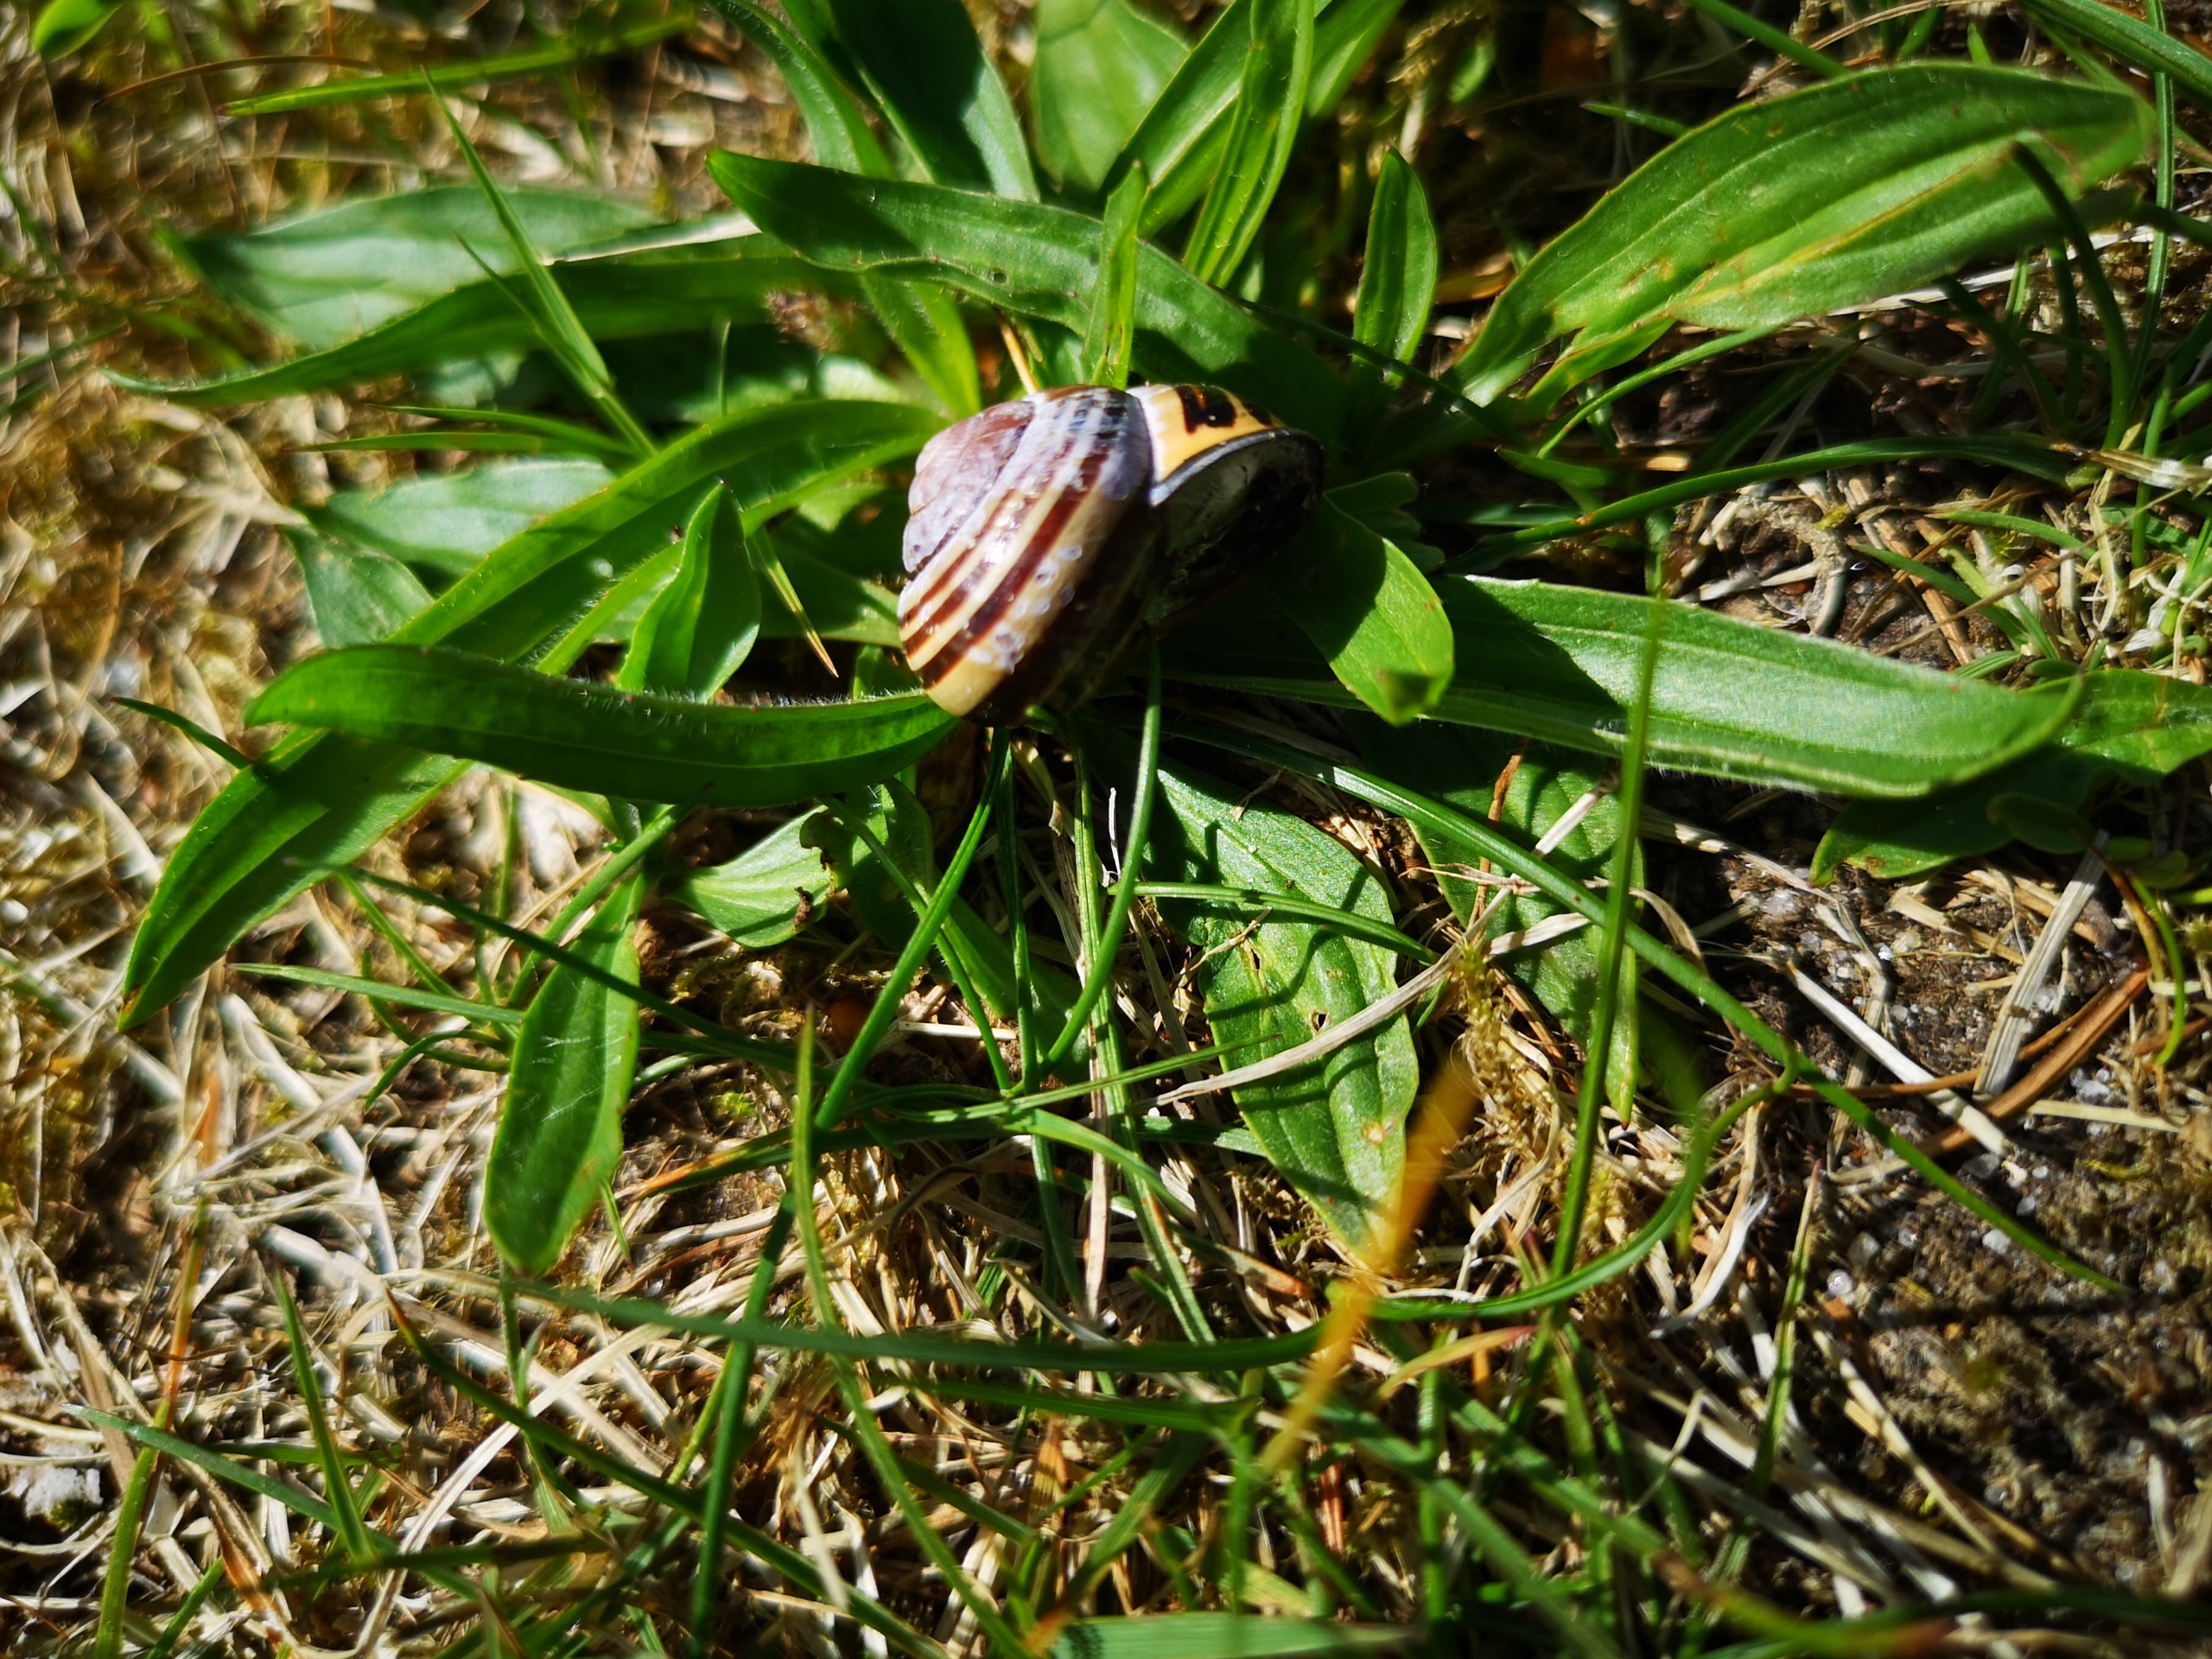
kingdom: Animalia
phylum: Mollusca
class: Gastropoda
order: Stylommatophora
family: Helicidae
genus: Cepaea
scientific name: Cepaea nemoralis
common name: Lundsnegl
